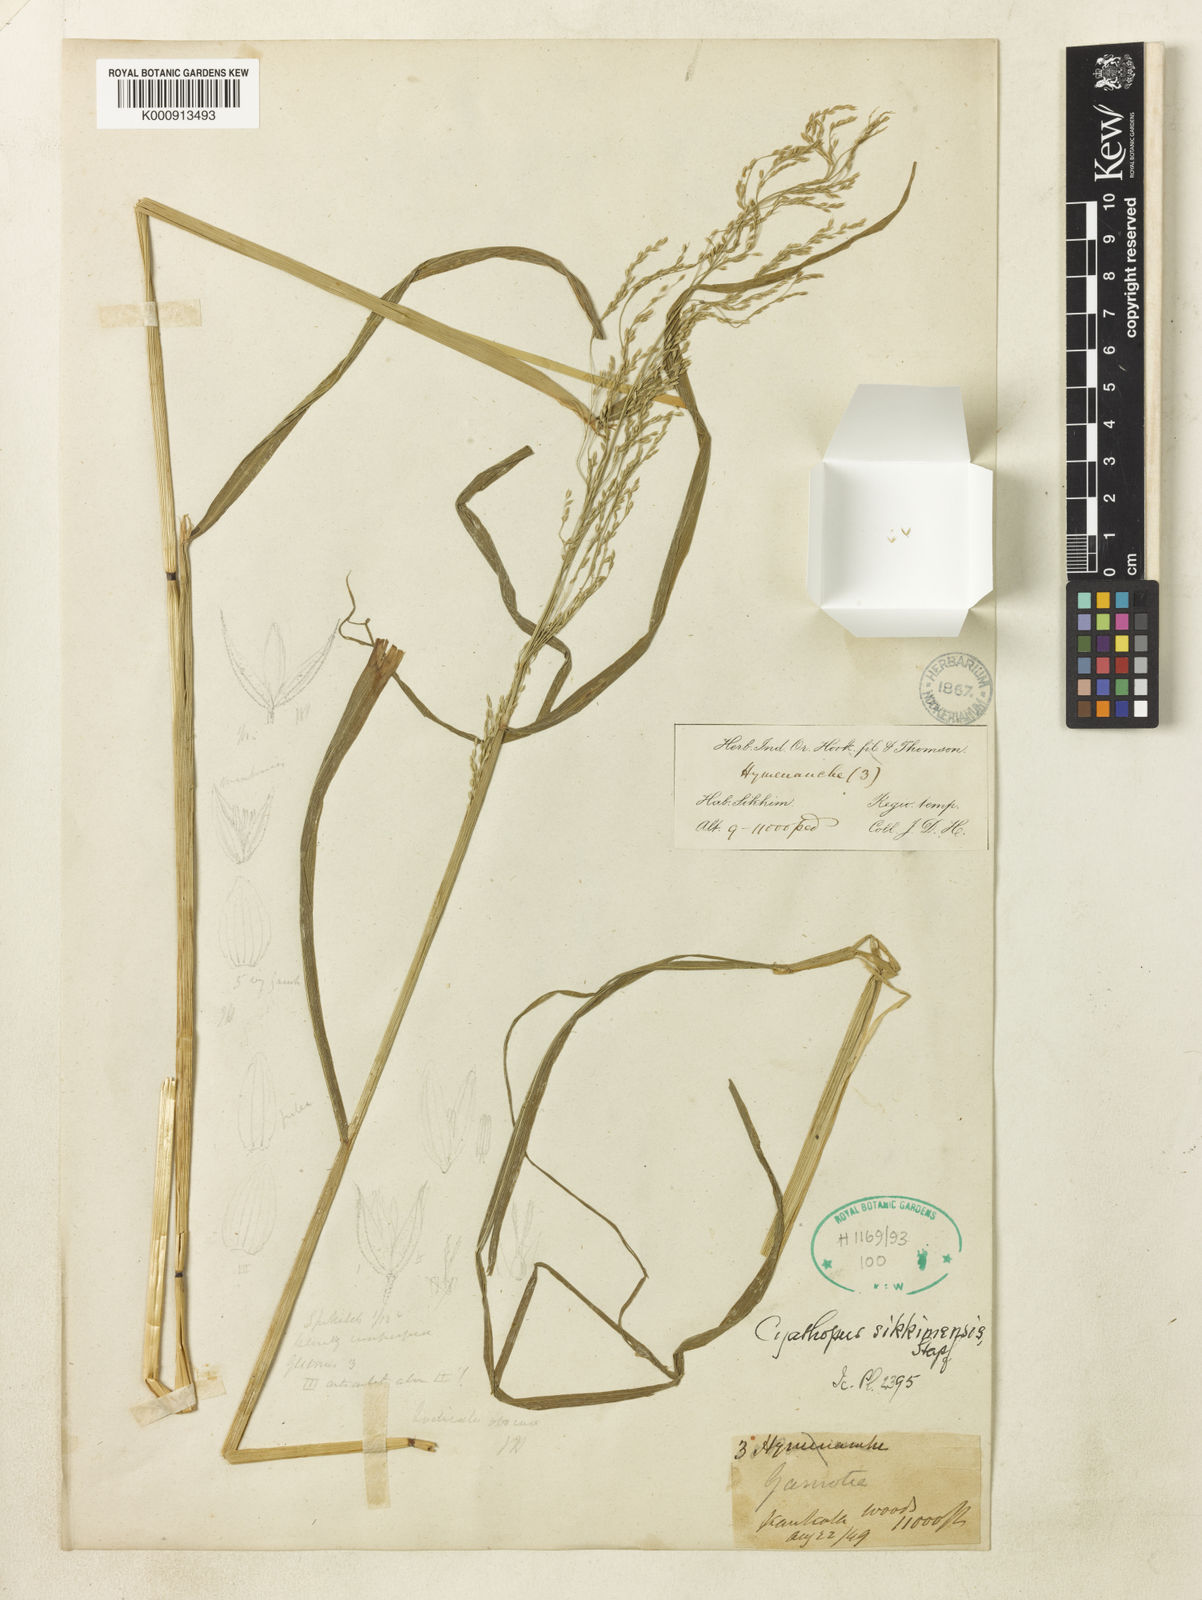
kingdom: Plantae
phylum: Tracheophyta
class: Liliopsida
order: Poales
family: Poaceae
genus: Cyathopus
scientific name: Cyathopus sikkimensis
